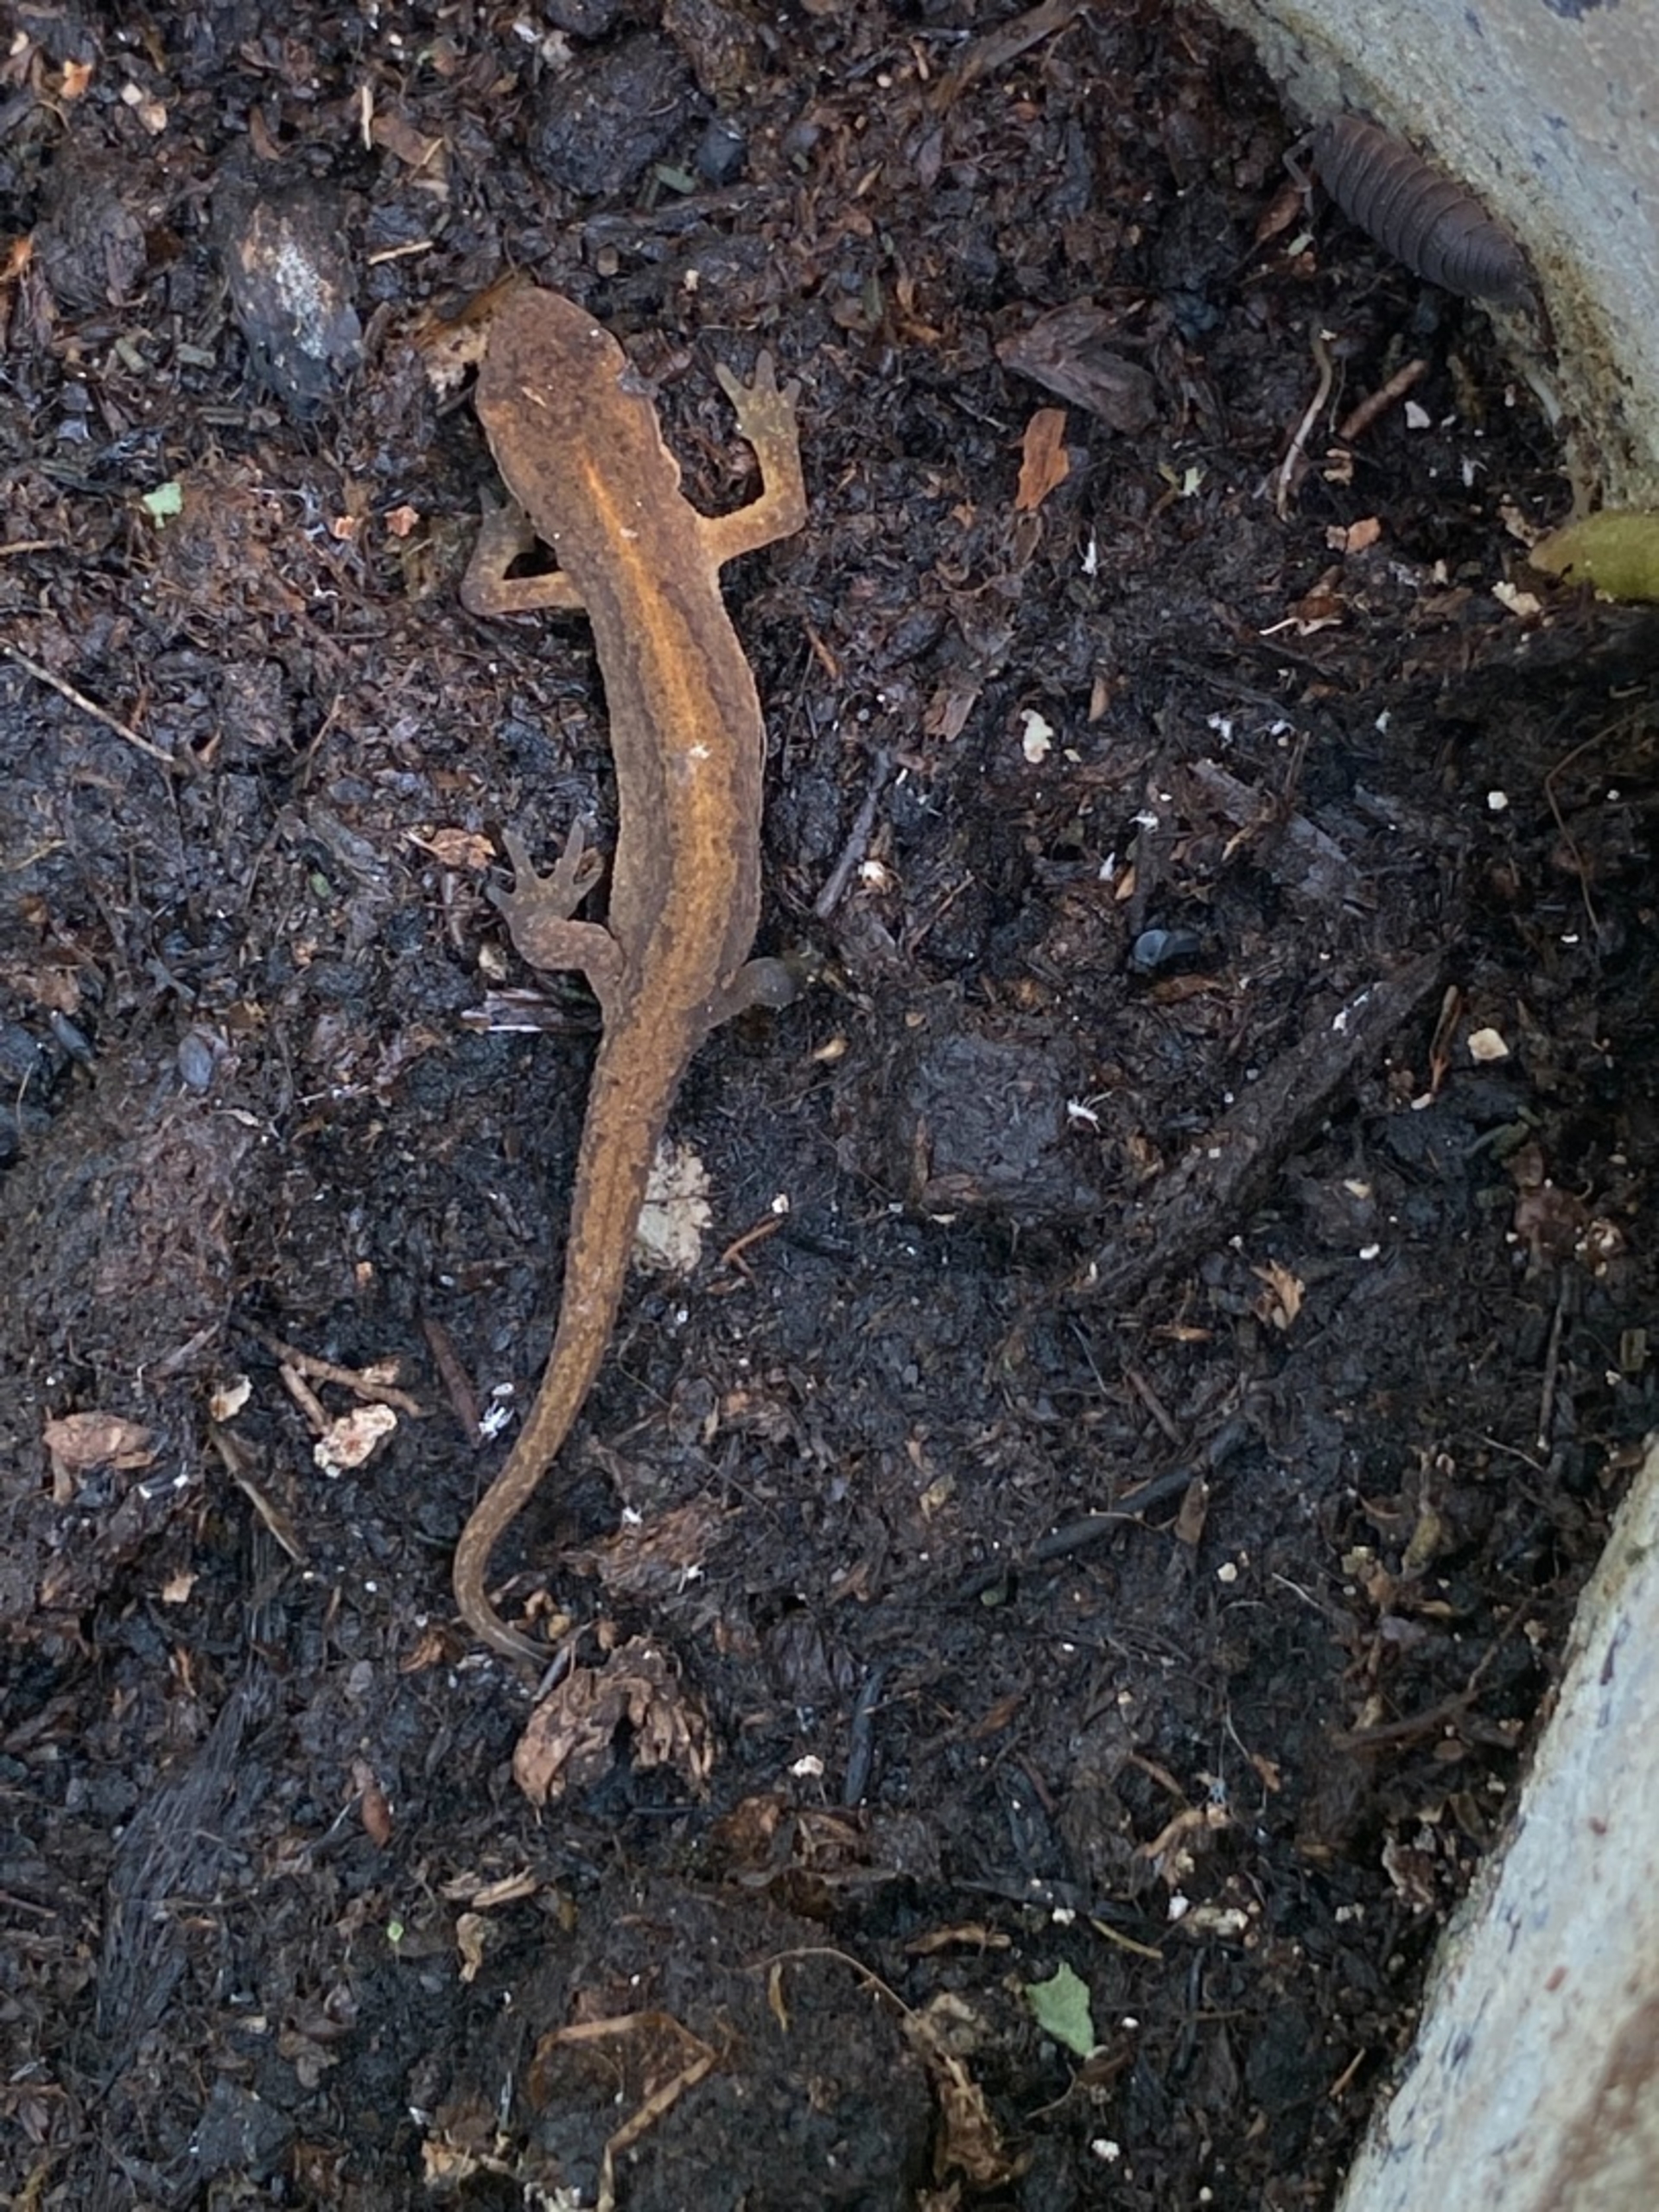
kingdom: Animalia
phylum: Chordata
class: Amphibia
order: Caudata
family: Salamandridae
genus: Lissotriton
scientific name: Lissotriton vulgaris
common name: Lille vandsalamander
